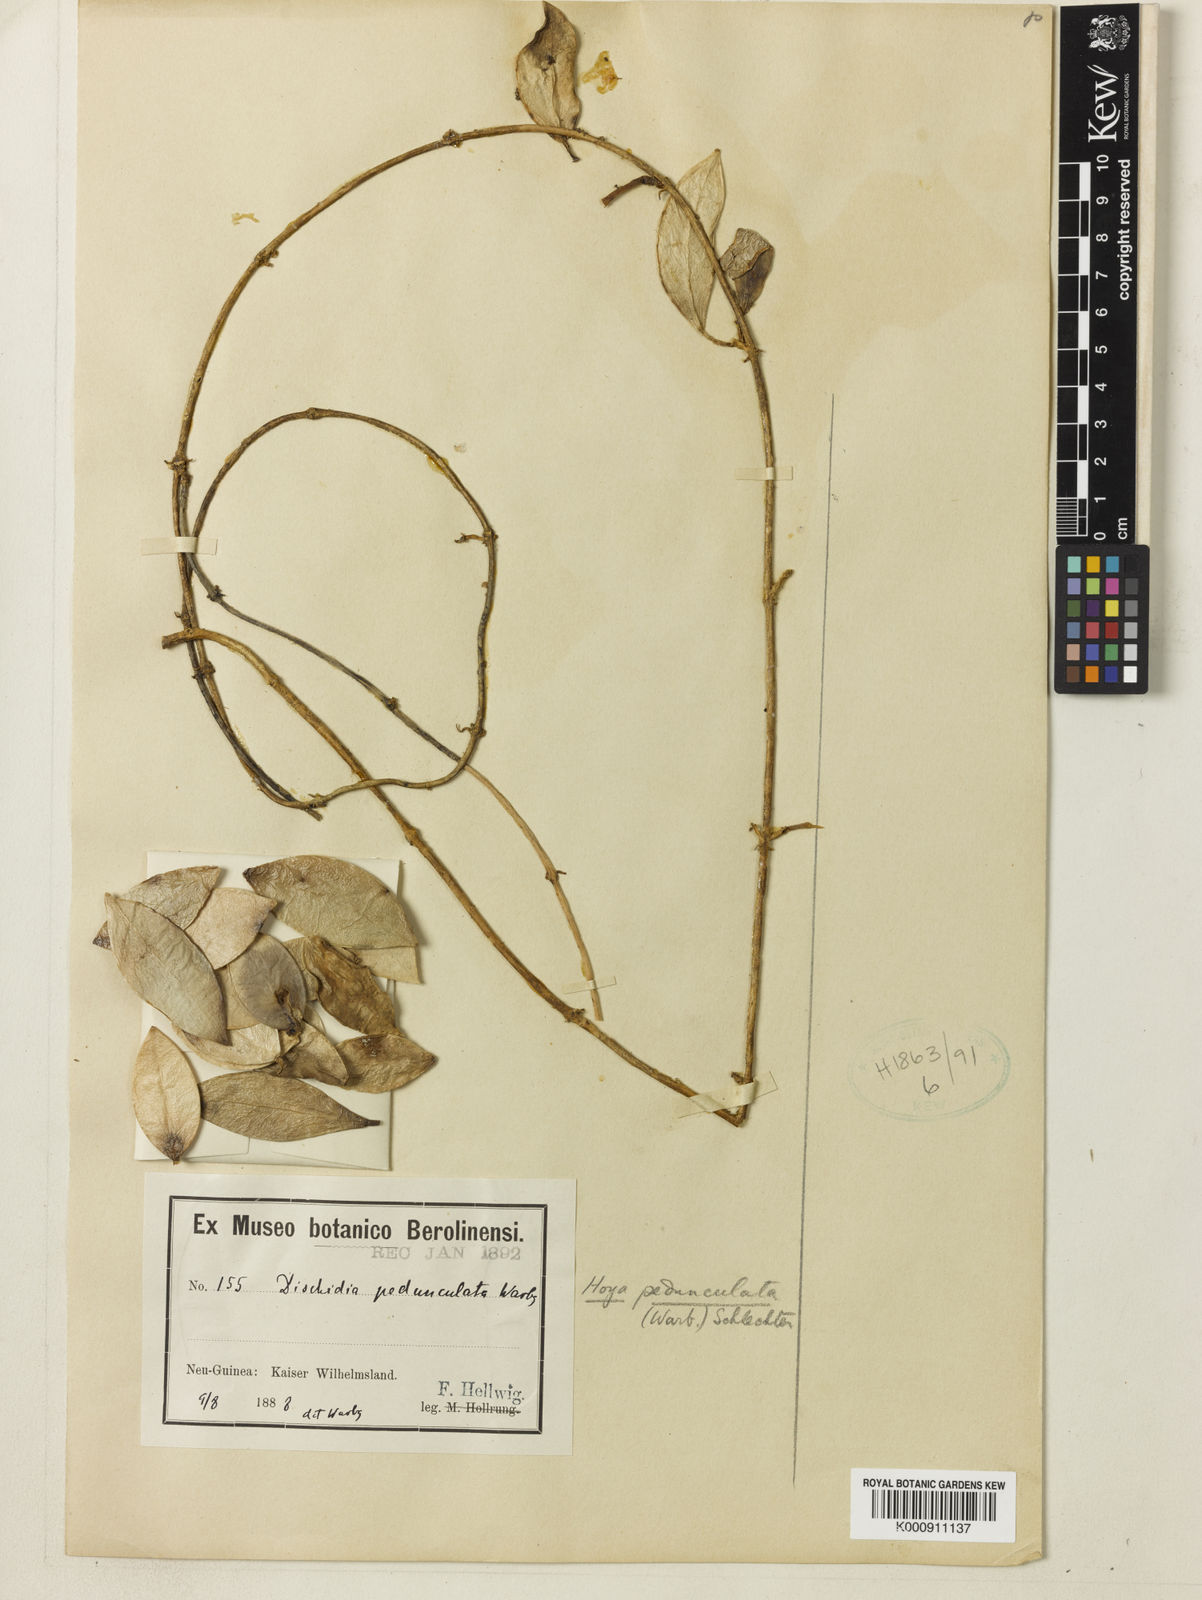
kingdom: Plantae
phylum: Tracheophyta
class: Magnoliopsida
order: Gentianales
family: Apocynaceae
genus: Hoya
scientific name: Hoya pedunculata
